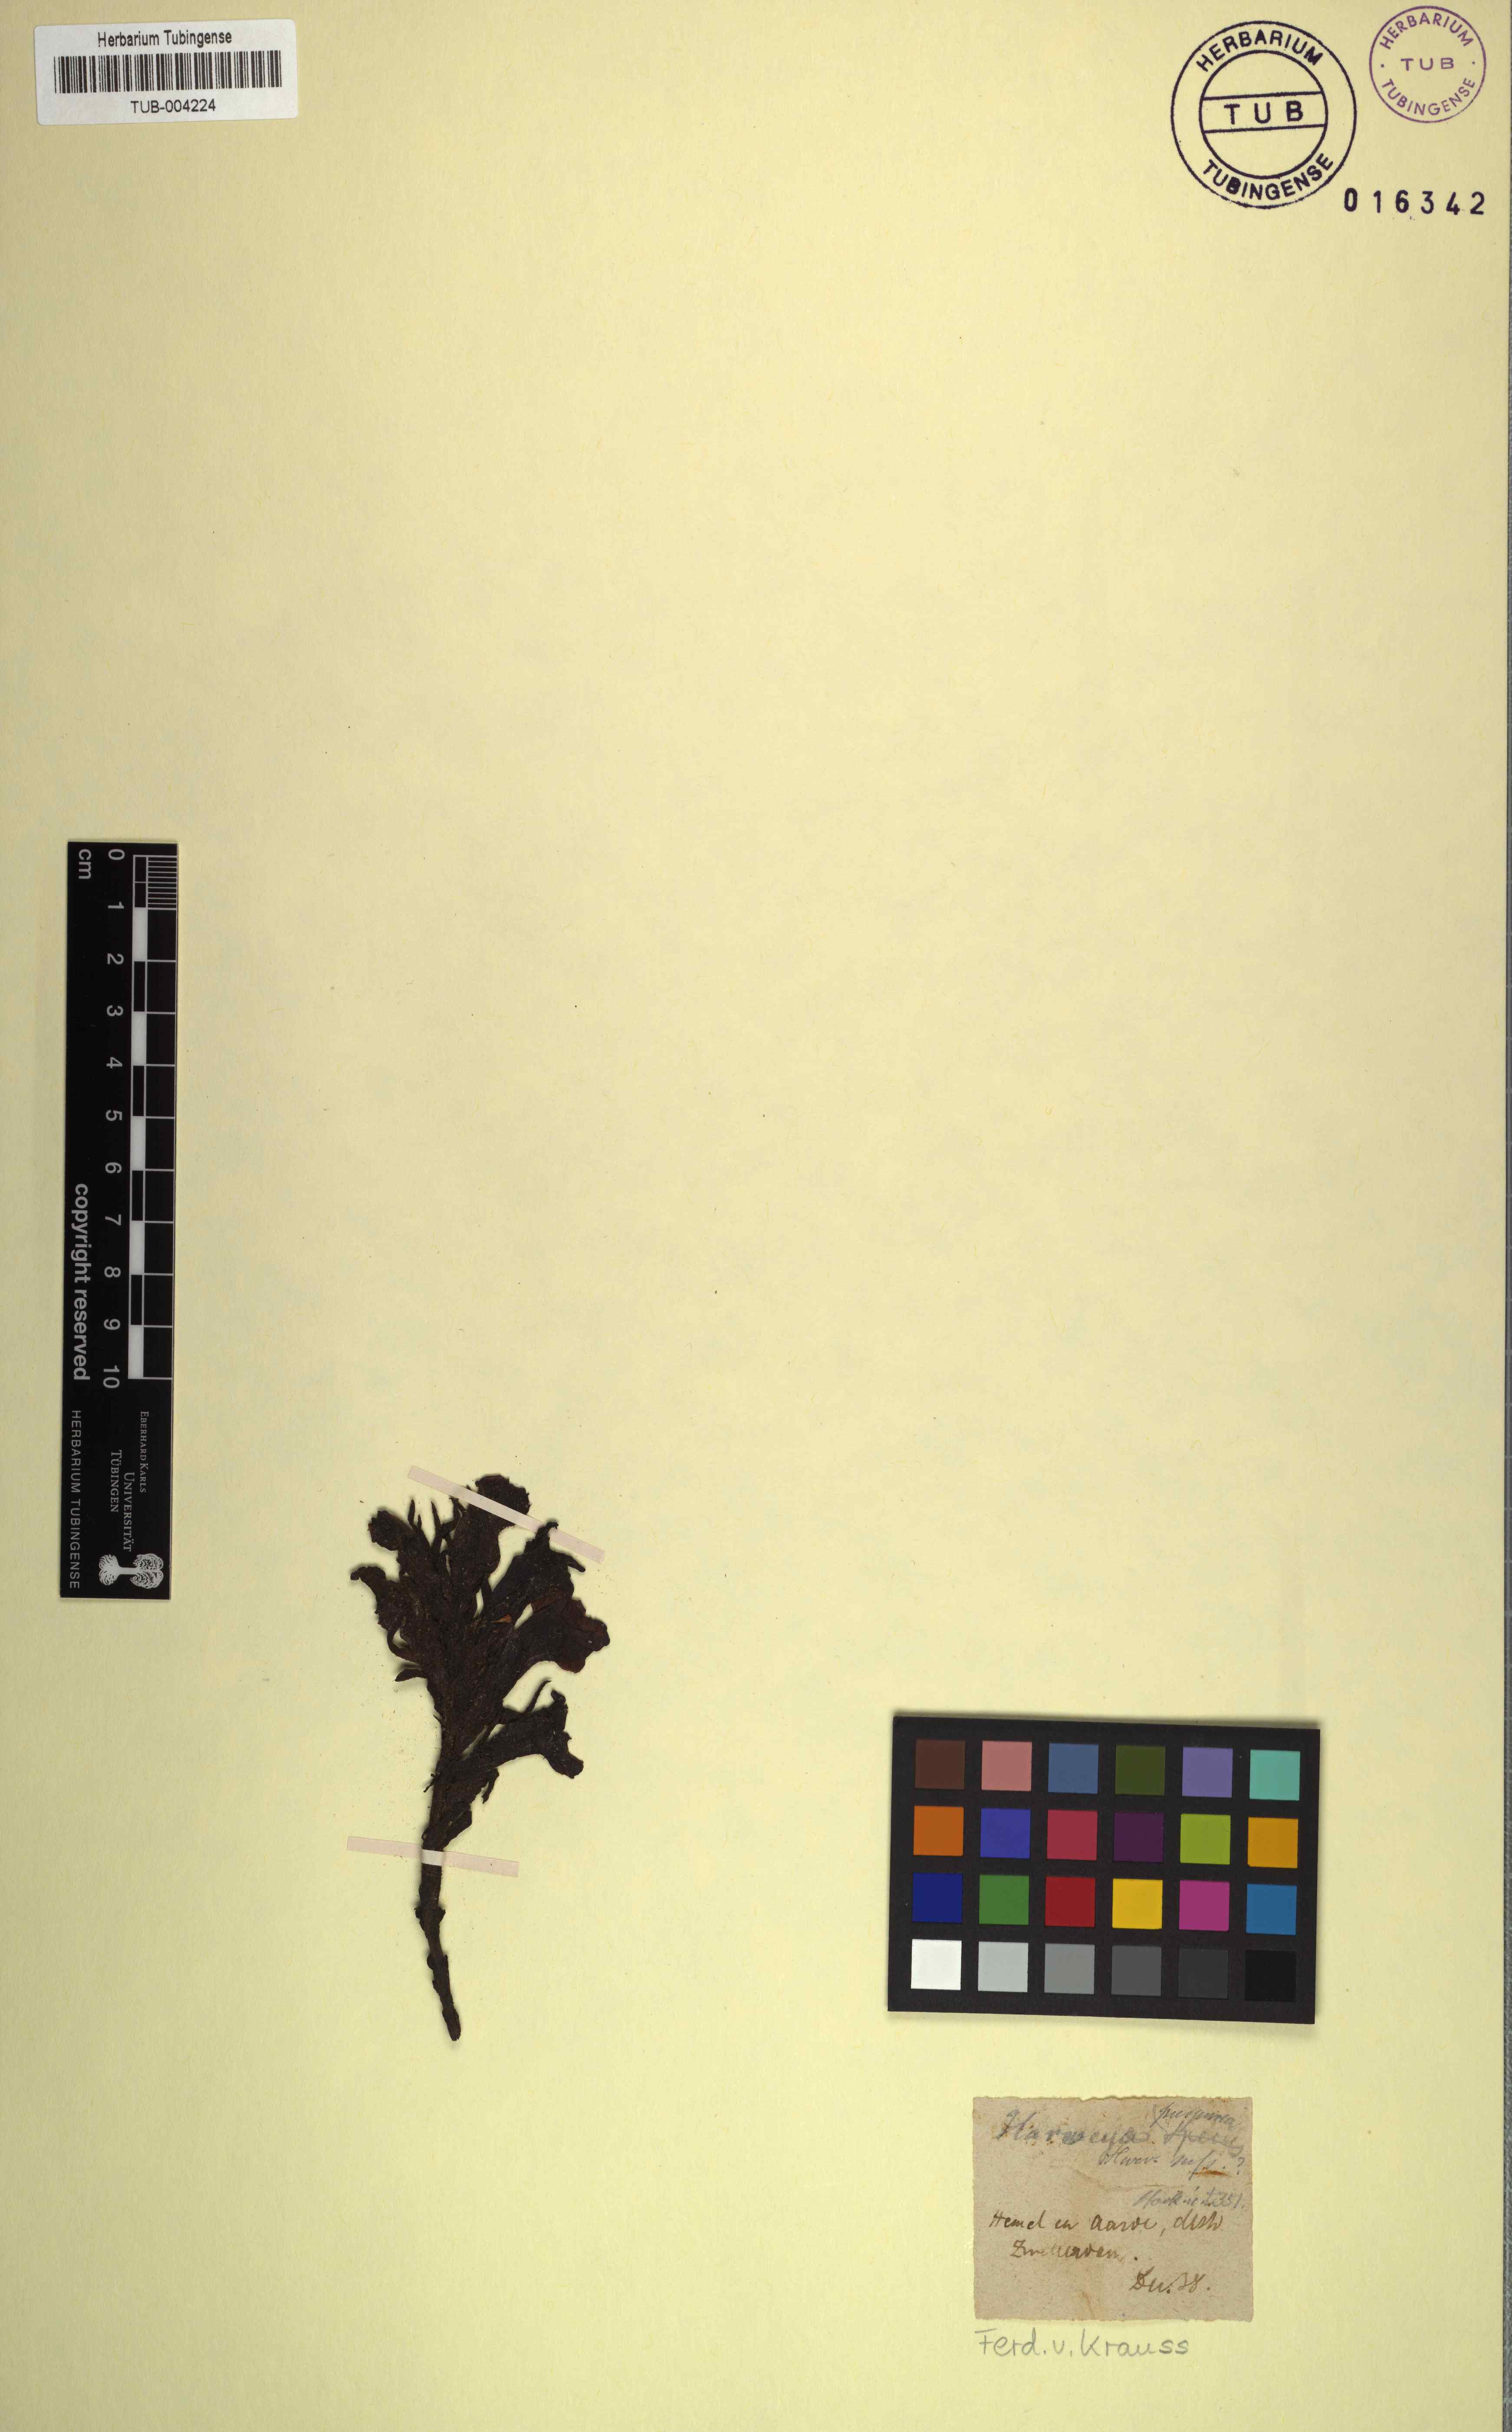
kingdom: Plantae
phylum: Tracheophyta
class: Magnoliopsida
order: Lamiales
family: Orobanchaceae
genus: Harveya
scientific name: Harveya purpurea
